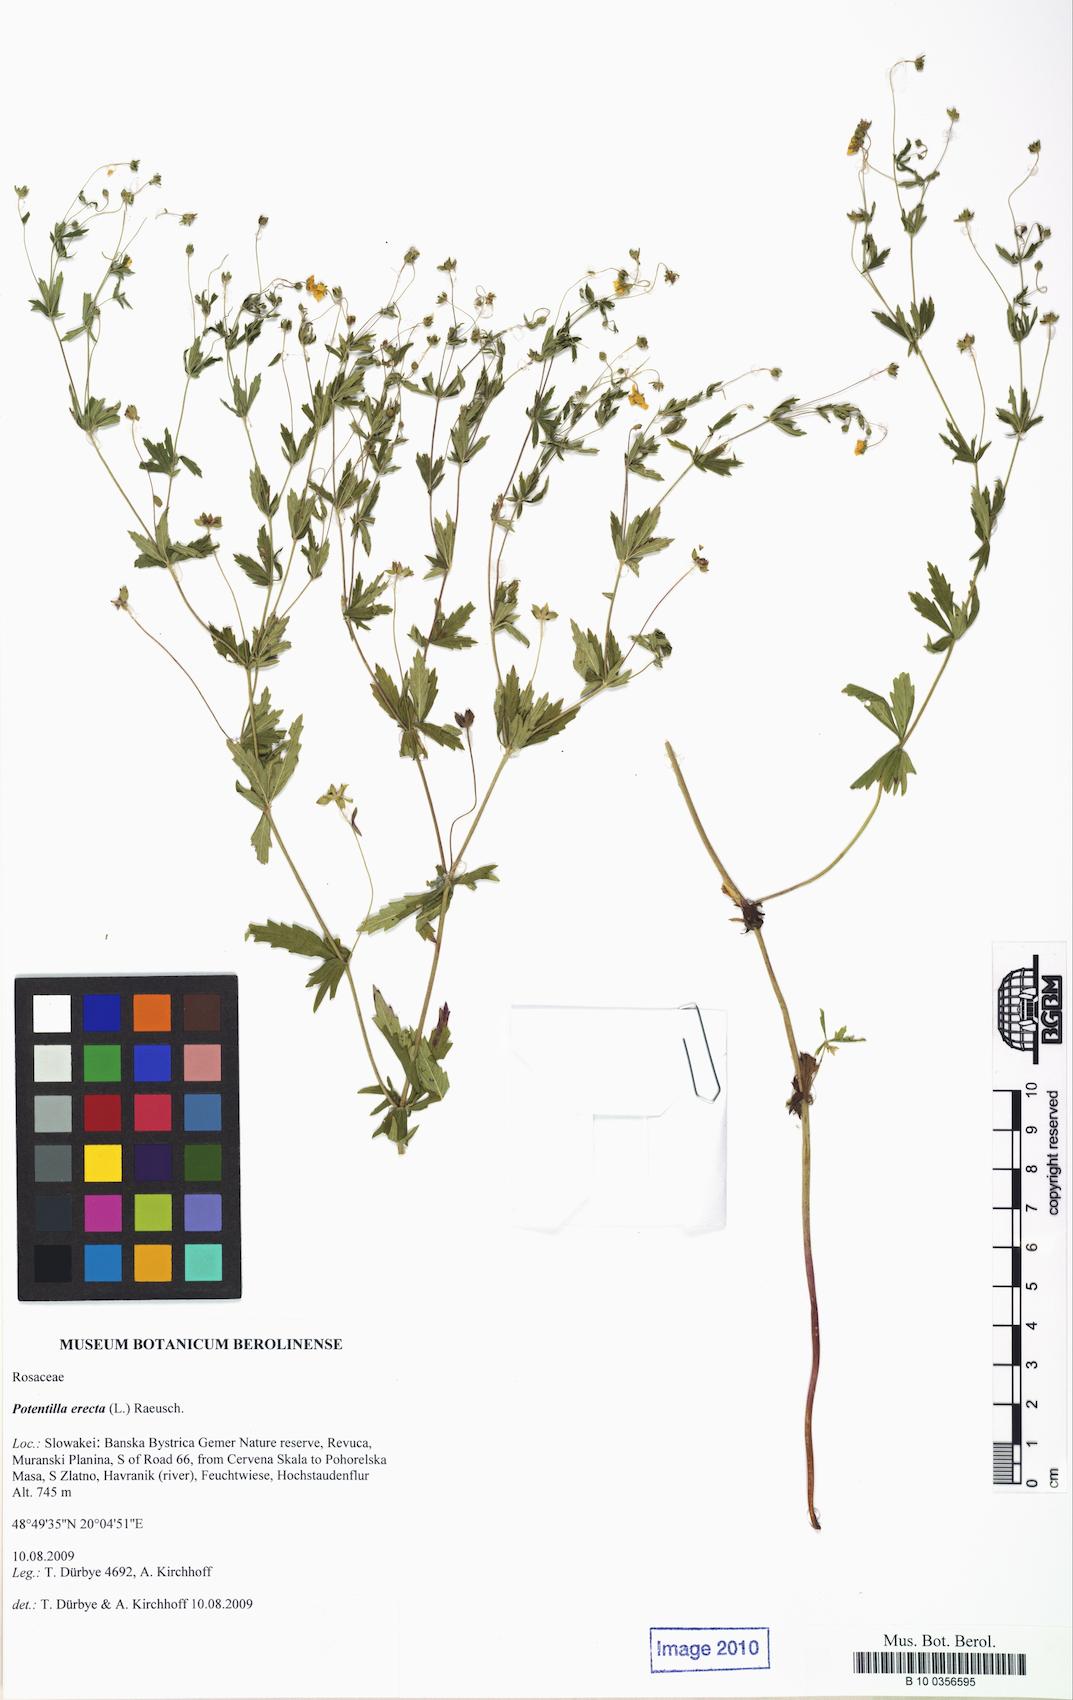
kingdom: Plantae
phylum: Tracheophyta
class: Magnoliopsida
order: Rosales
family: Rosaceae
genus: Potentilla
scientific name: Potentilla erecta
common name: Tormentil
